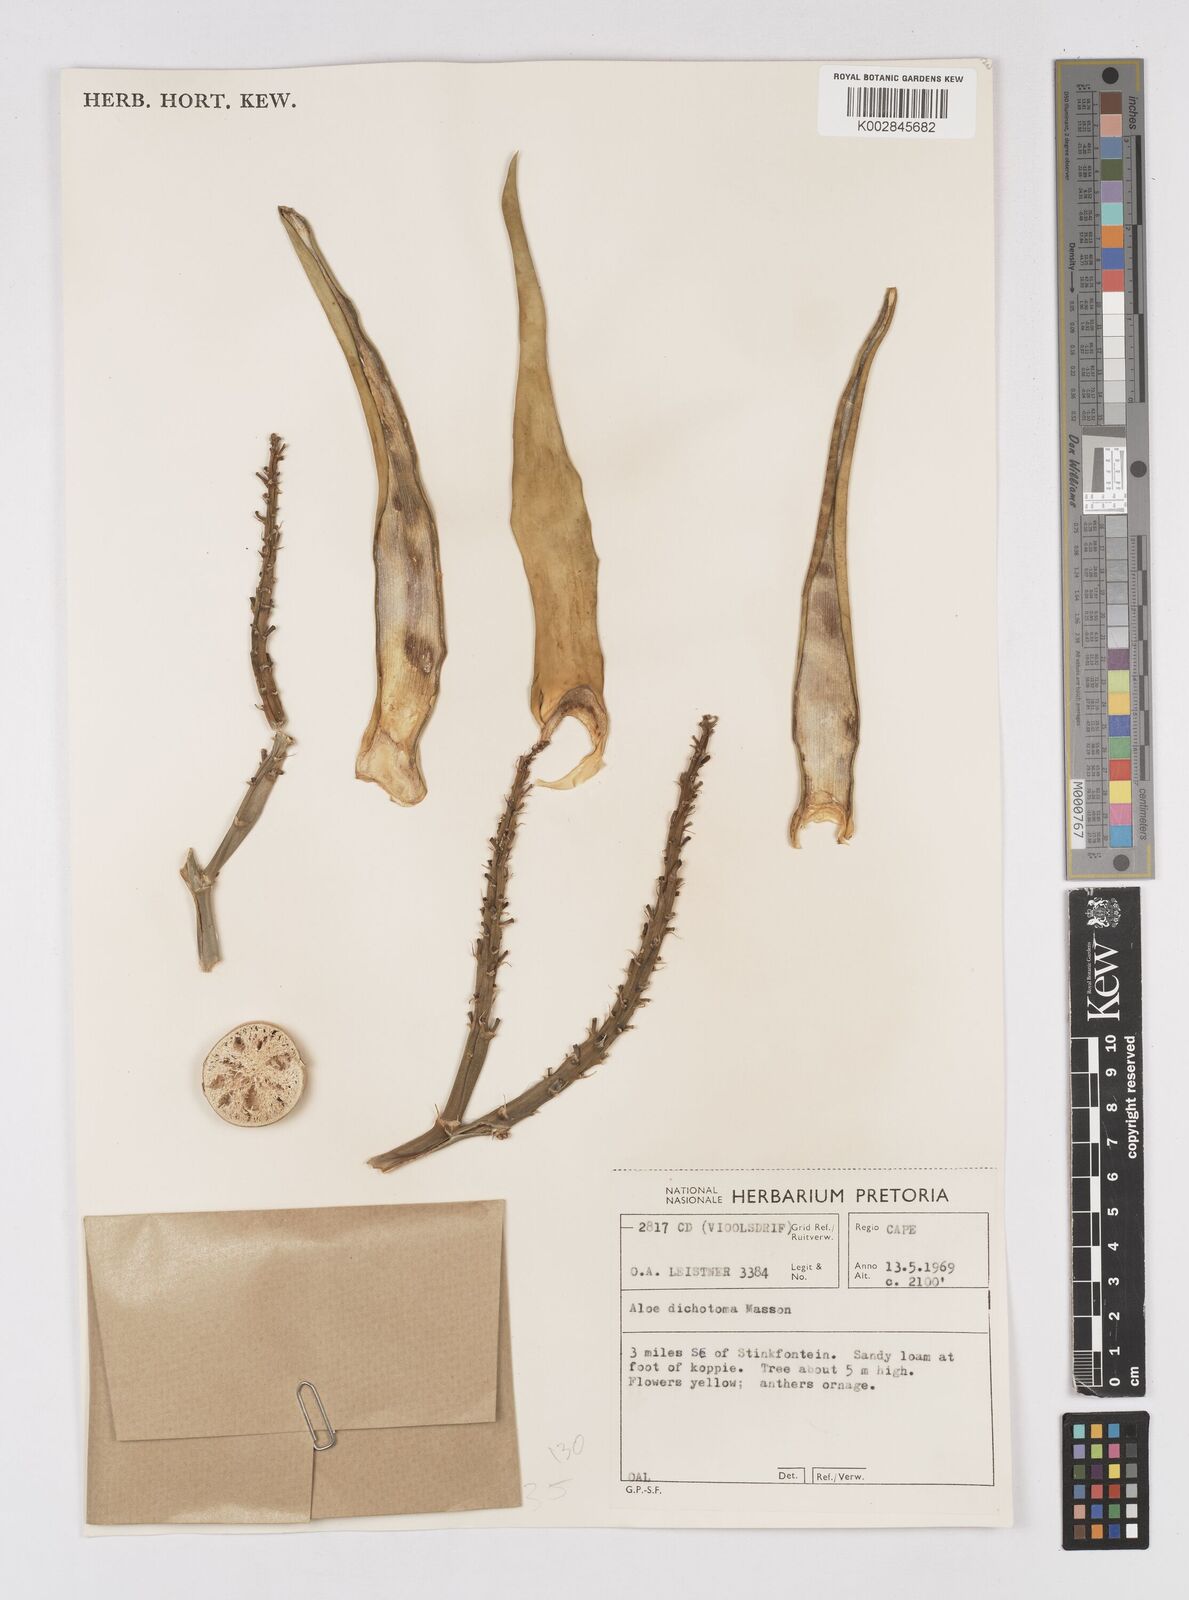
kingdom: Plantae
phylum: Tracheophyta
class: Liliopsida
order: Asparagales
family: Asphodelaceae
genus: Aloidendron
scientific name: Aloidendron dichotomum
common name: Quiver tree
